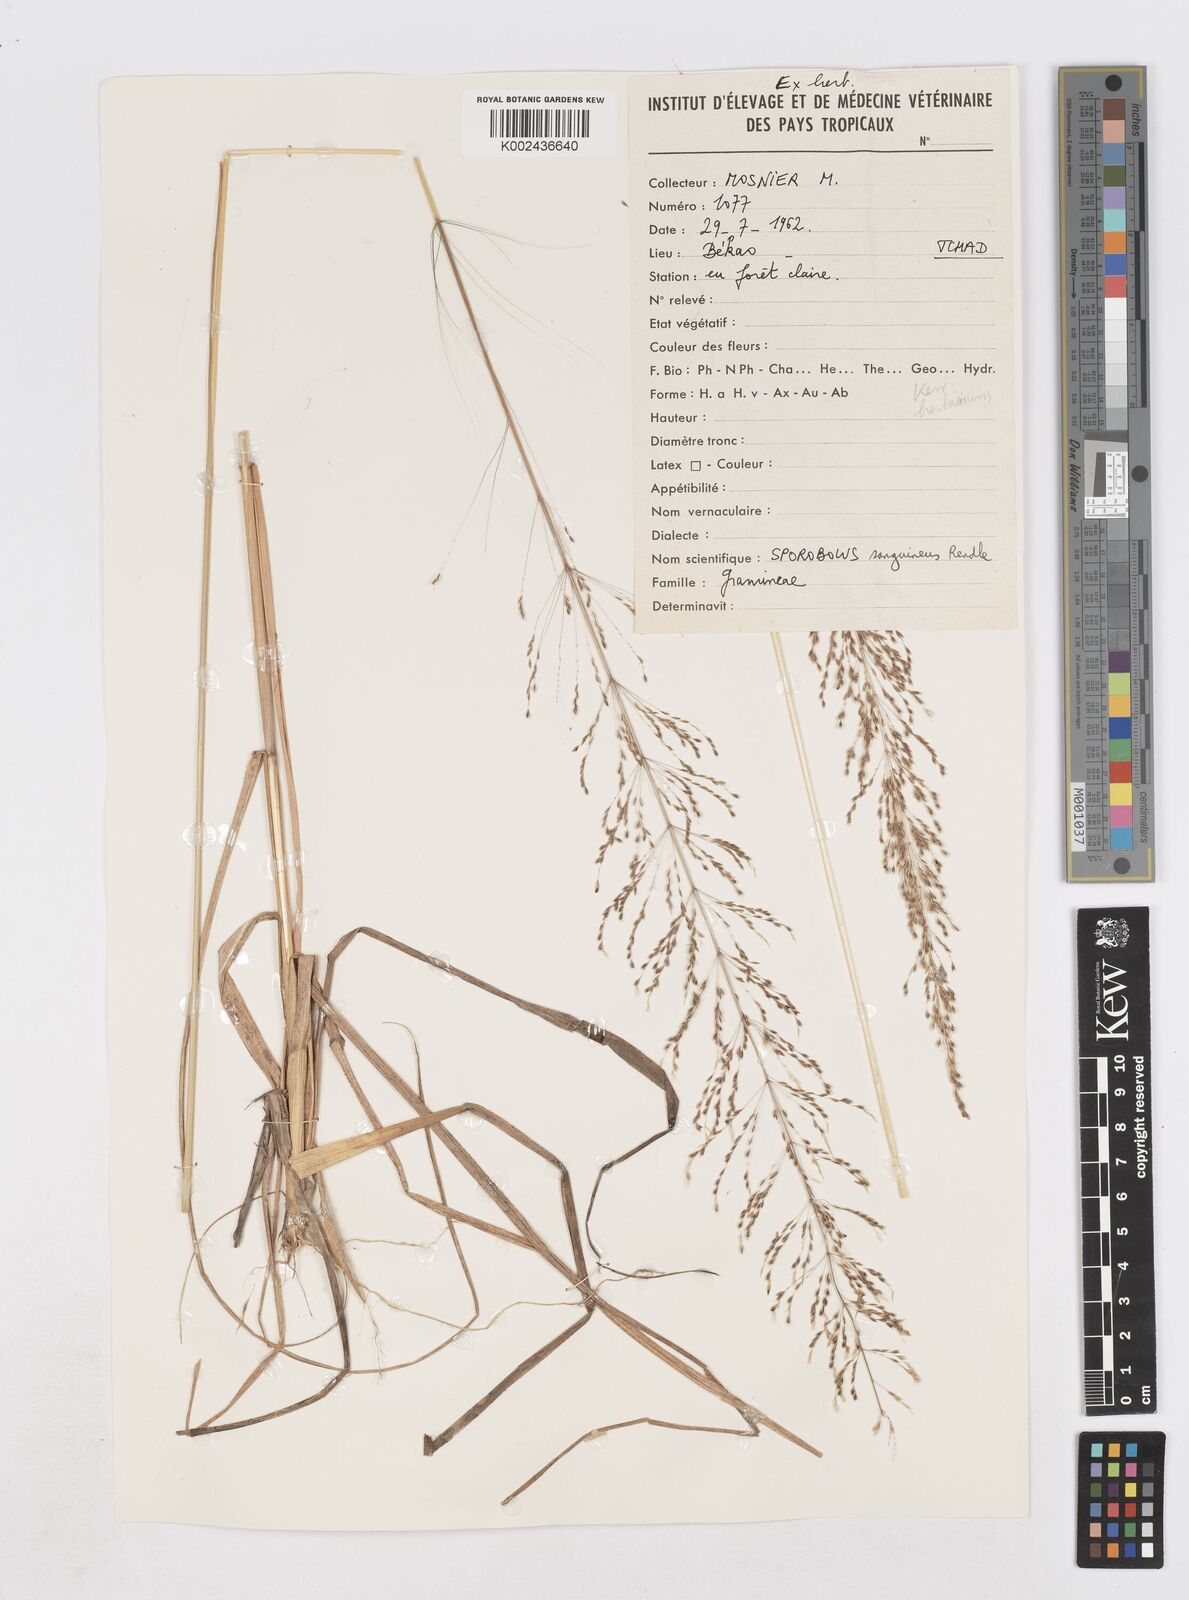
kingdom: Plantae
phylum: Tracheophyta
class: Liliopsida
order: Poales
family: Poaceae
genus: Sporobolus
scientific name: Sporobolus sanguineus
